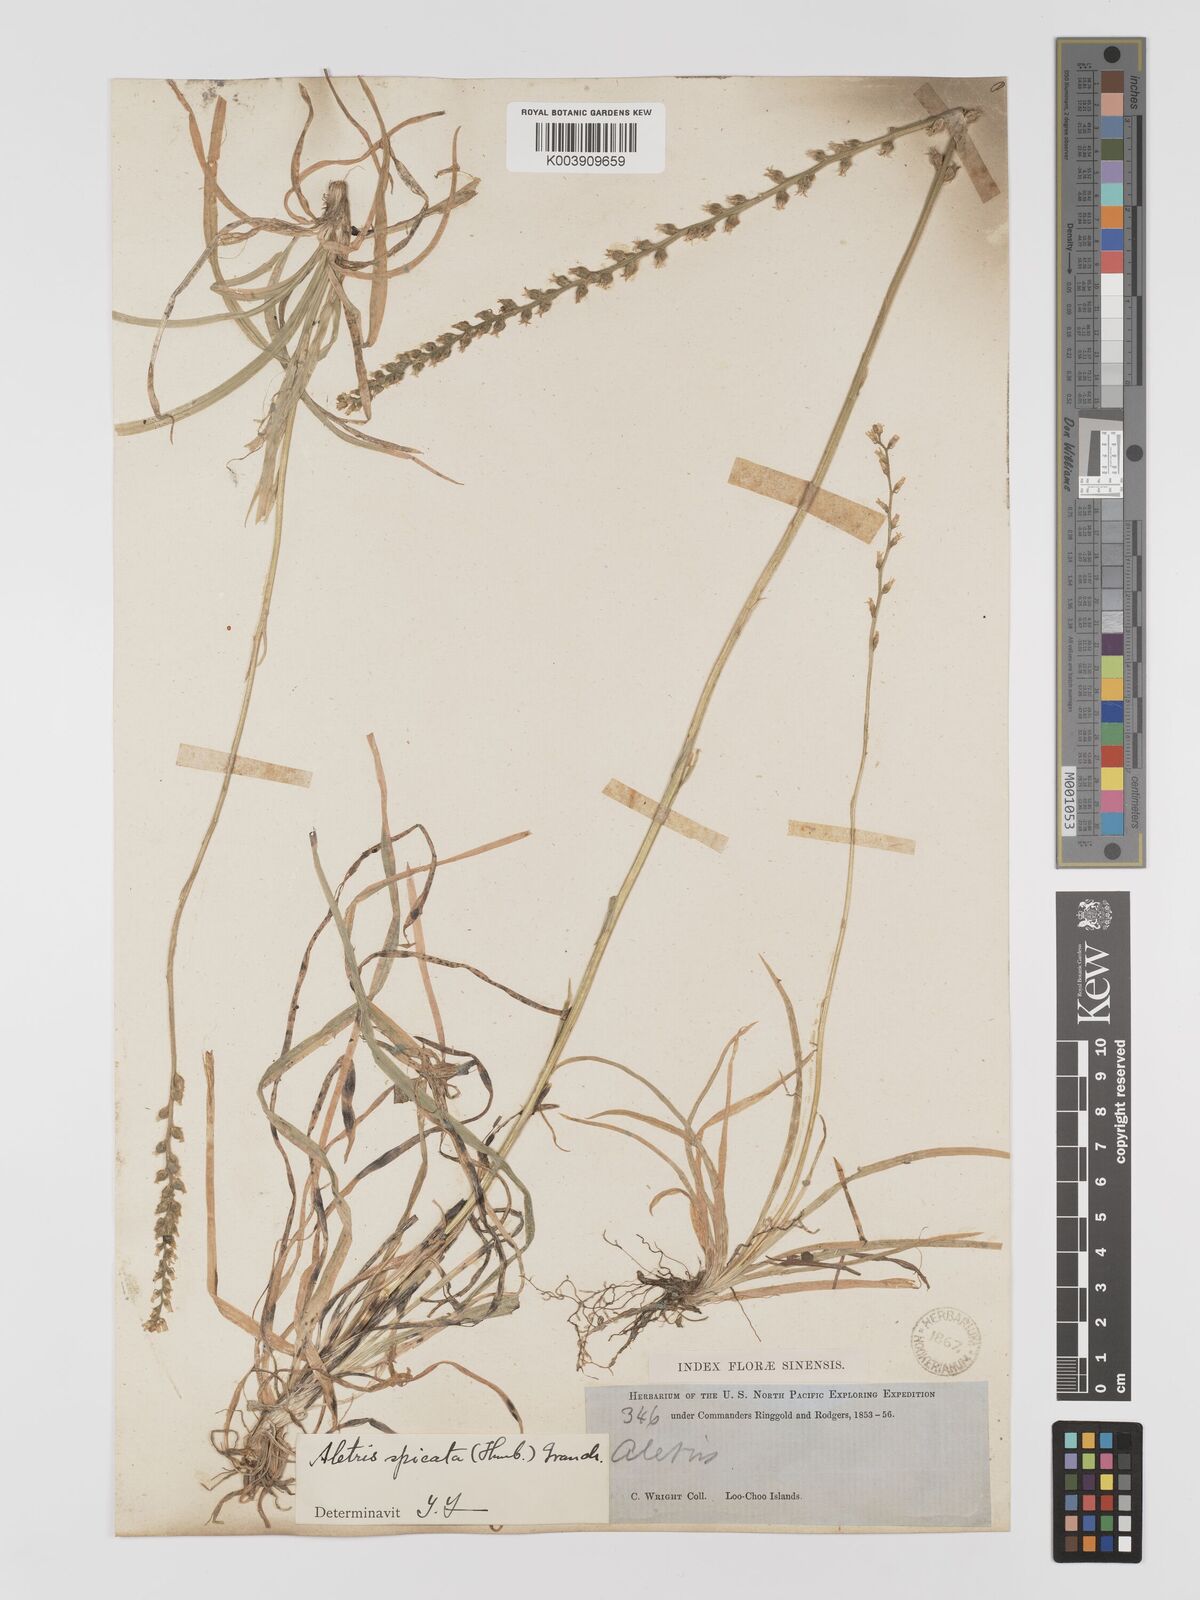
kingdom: Plantae
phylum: Tracheophyta
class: Liliopsida
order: Dioscoreales
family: Nartheciaceae
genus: Aletris
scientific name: Aletris spicata
